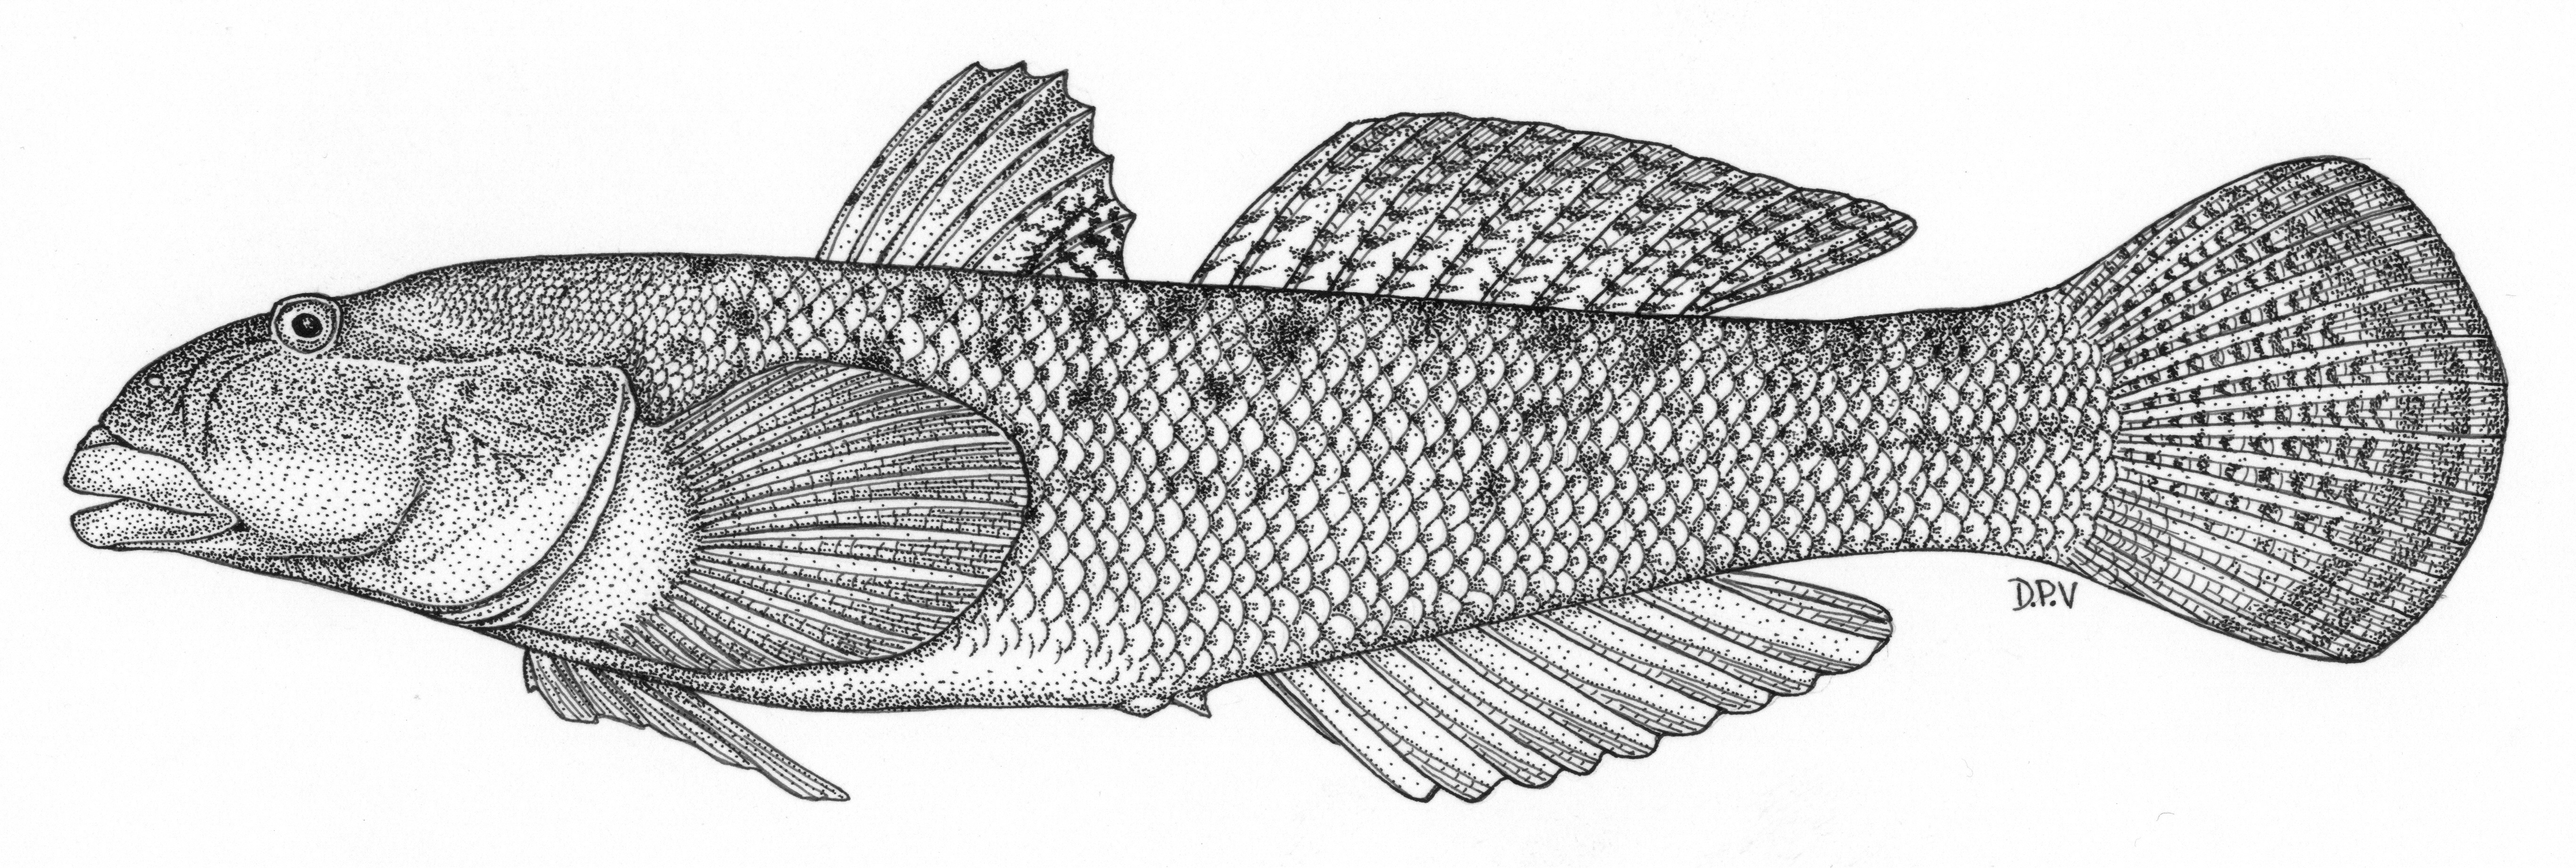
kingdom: Animalia
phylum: Chordata
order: Perciformes
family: Gobiidae
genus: Awaous
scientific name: Awaous aeneofuscus
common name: Freshwater goby
